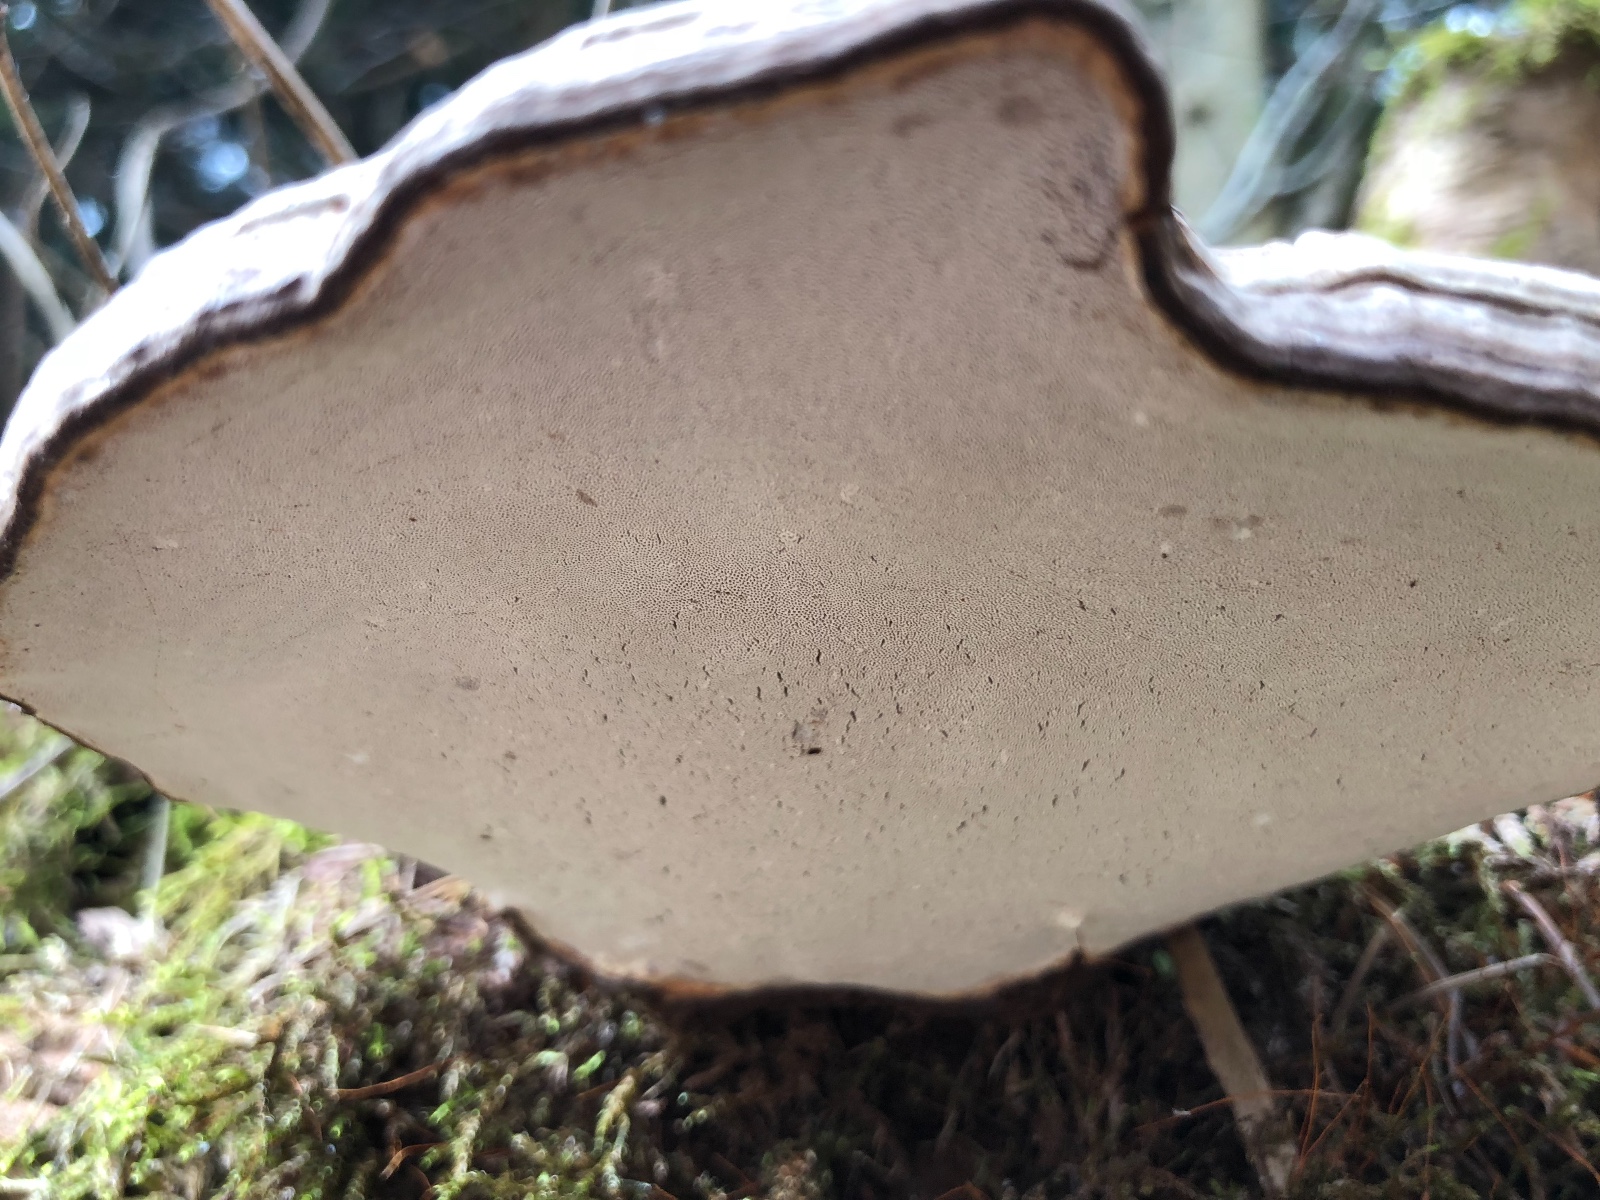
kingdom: Fungi
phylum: Basidiomycota
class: Agaricomycetes
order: Polyporales
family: Polyporaceae
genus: Ganoderma
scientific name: Ganoderma applanatum
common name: flad lakporesvamp
